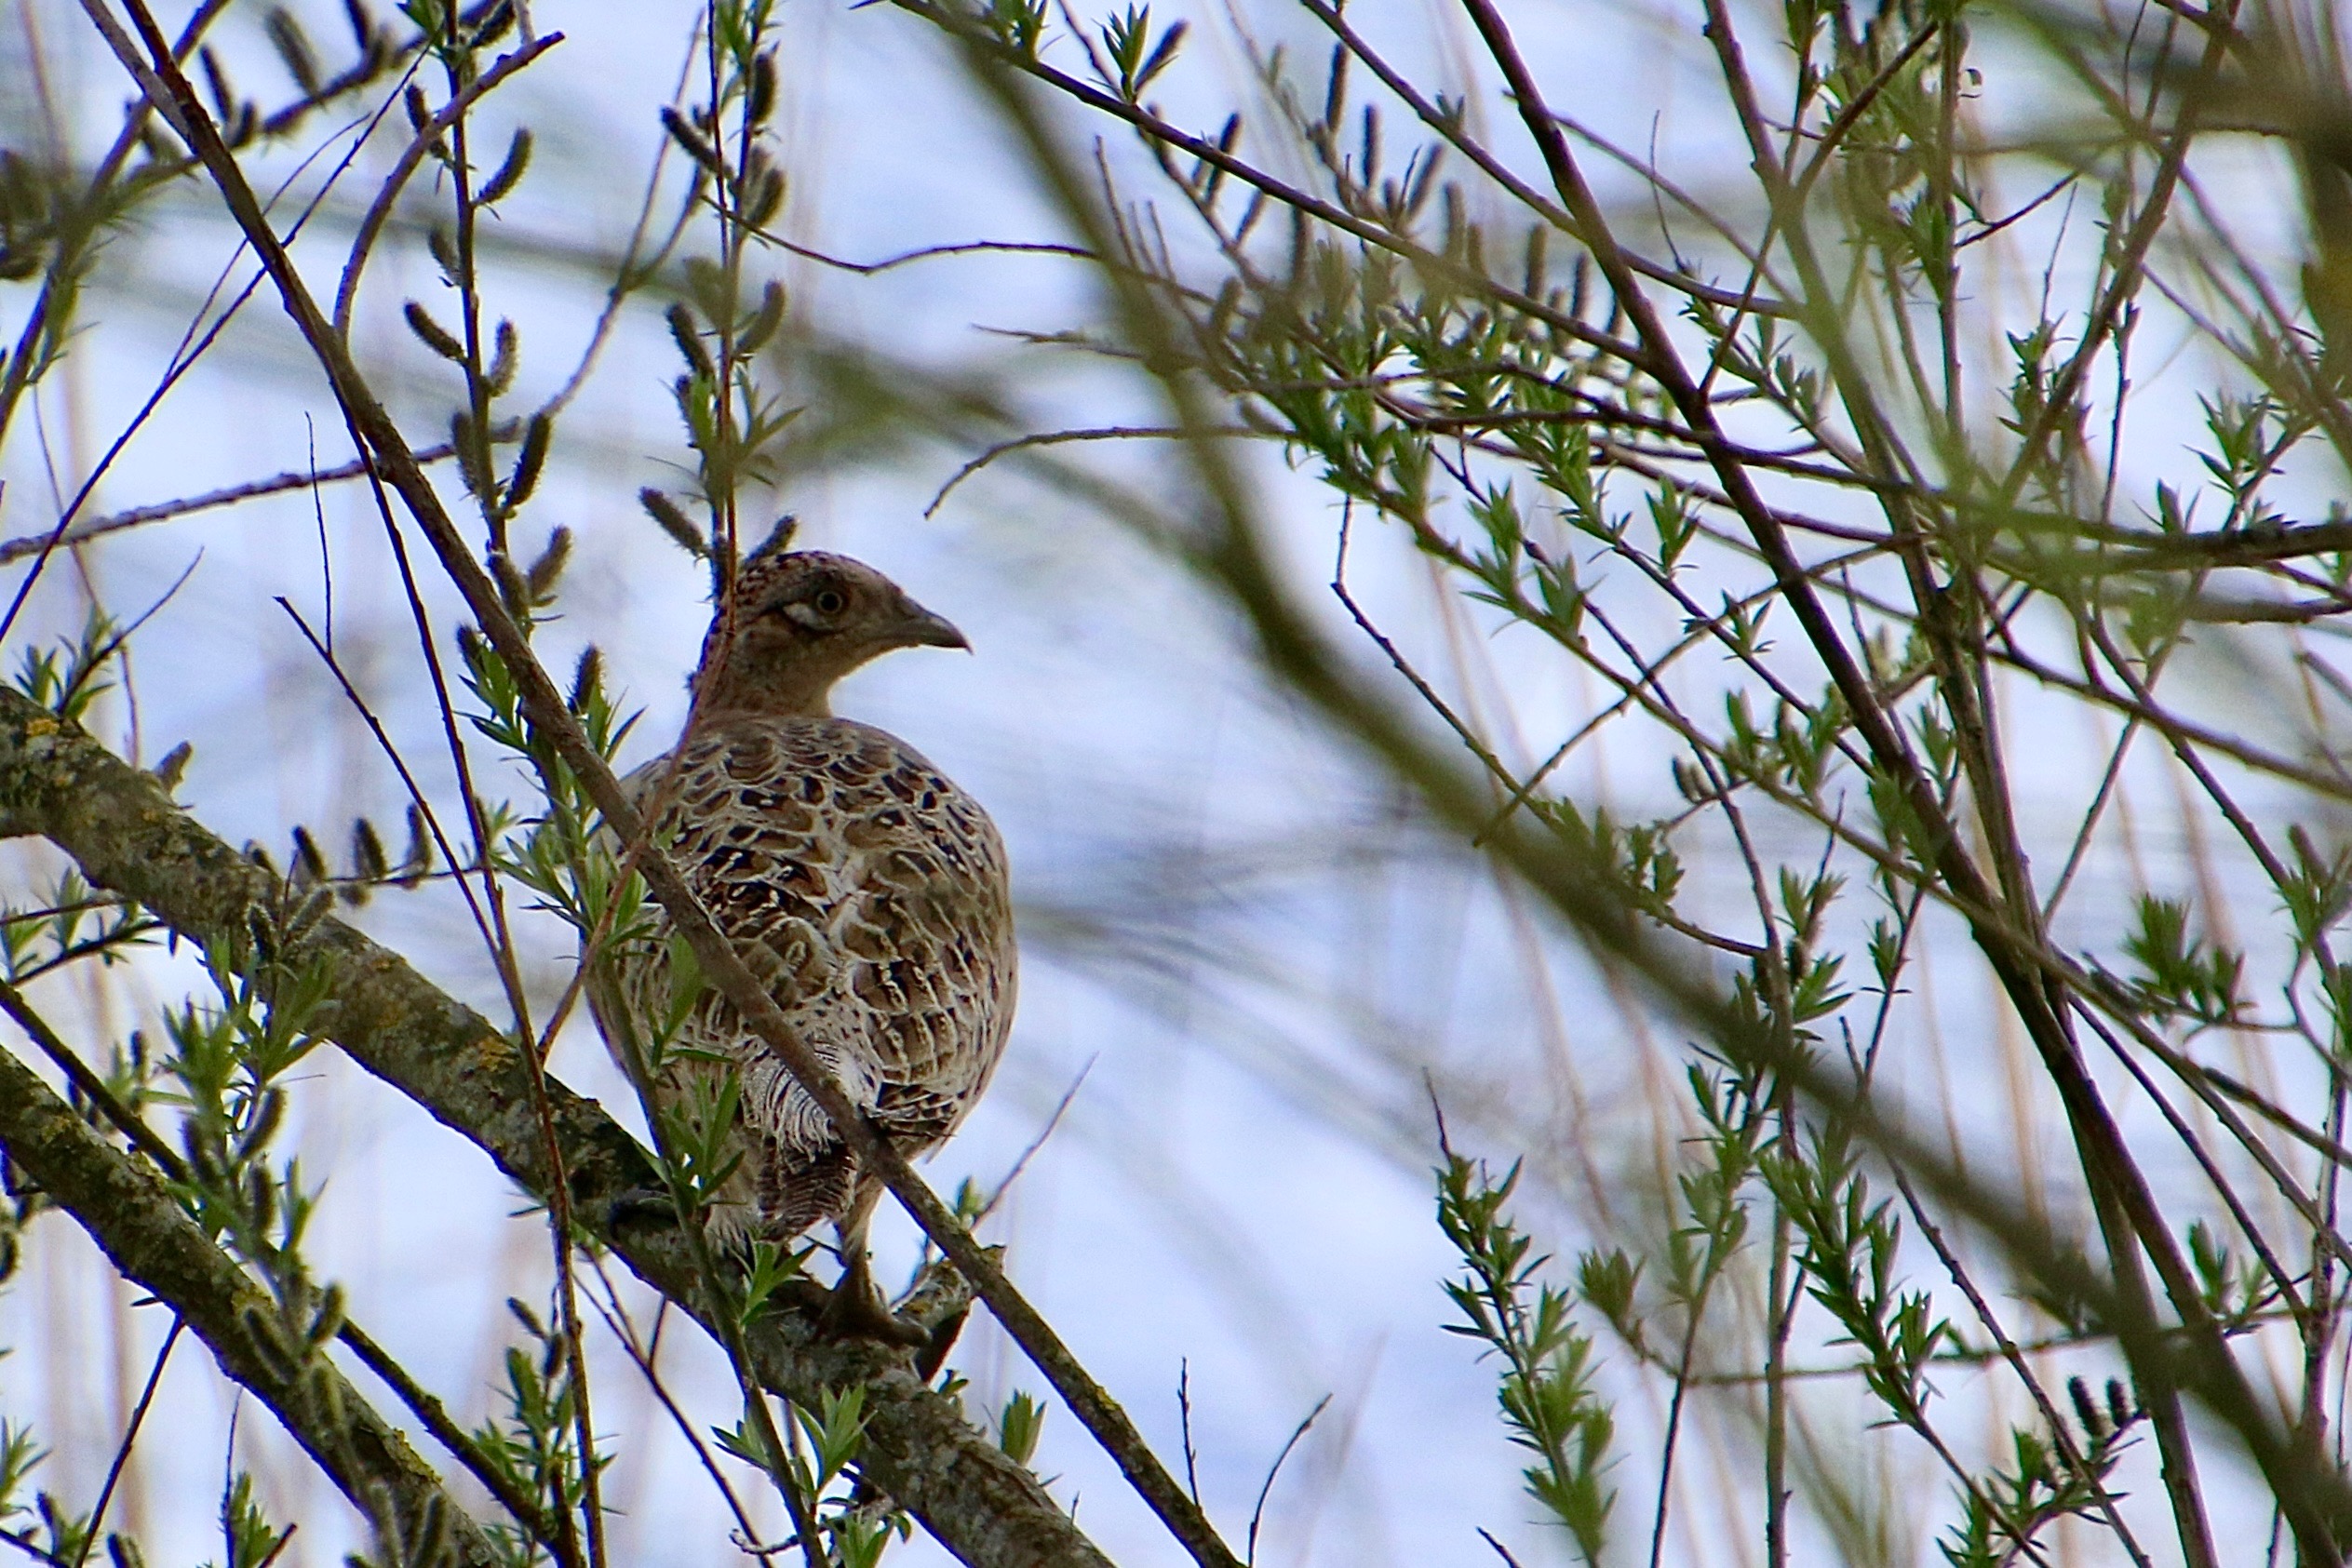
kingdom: Animalia
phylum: Chordata
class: Aves
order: Galliformes
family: Phasianidae
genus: Phasianus
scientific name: Phasianus colchicus
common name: Fasan
